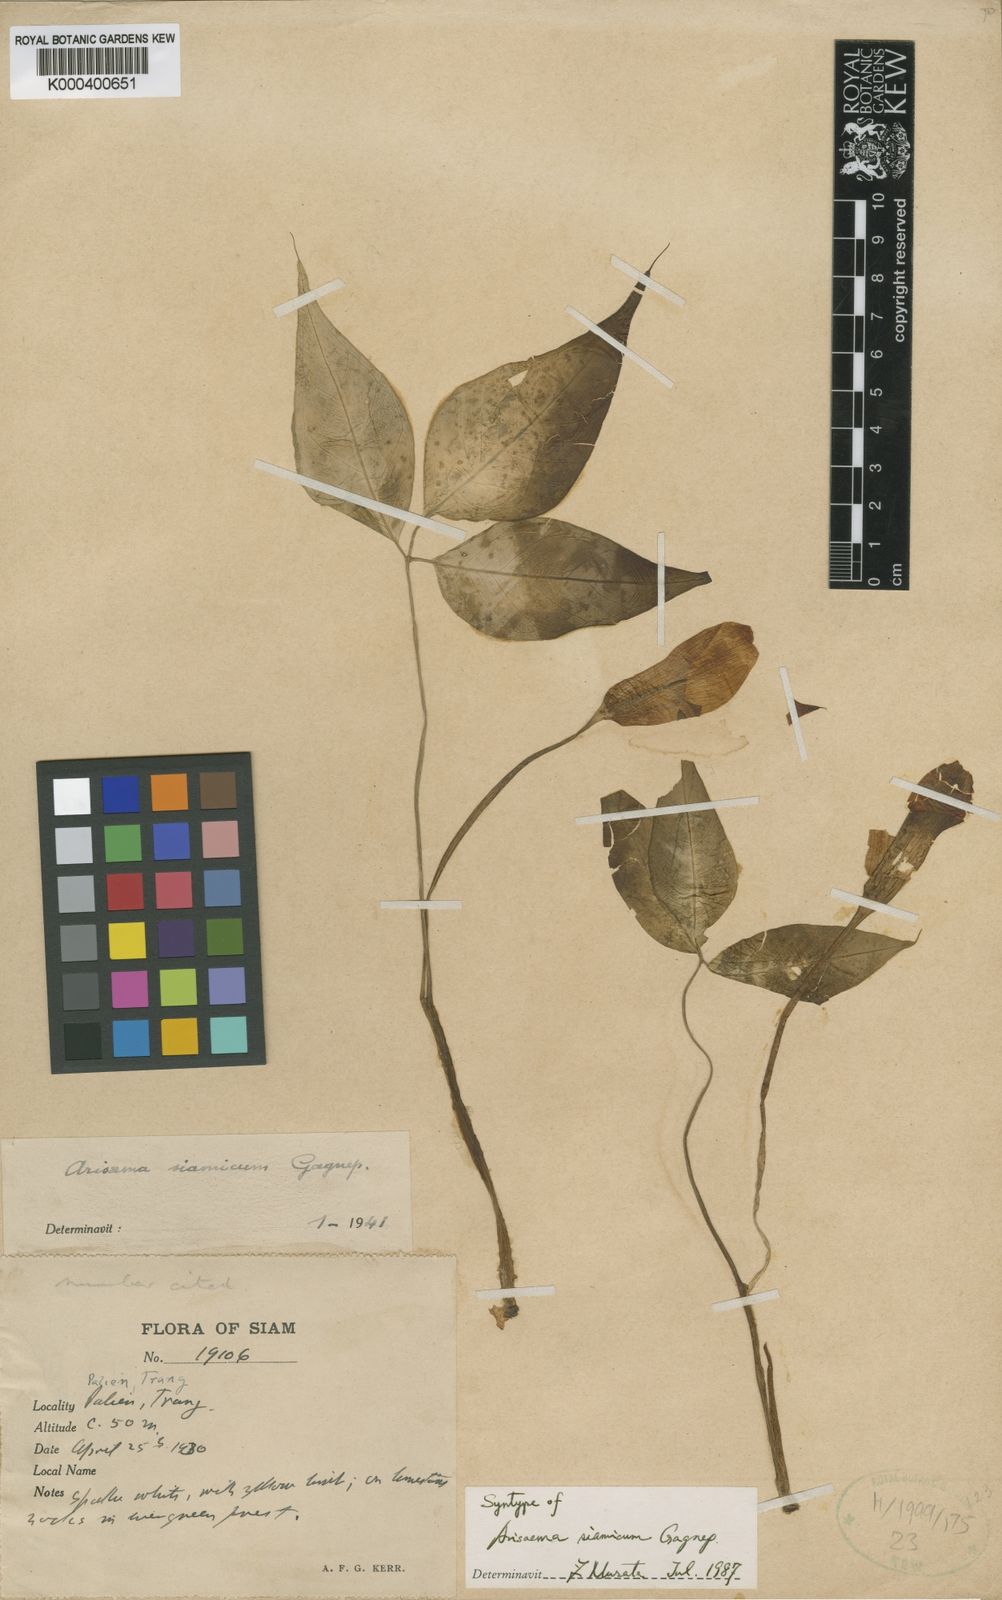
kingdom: Plantae
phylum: Tracheophyta
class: Liliopsida
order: Alismatales
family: Araceae
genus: Arisaema
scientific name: Arisaema siamicum
